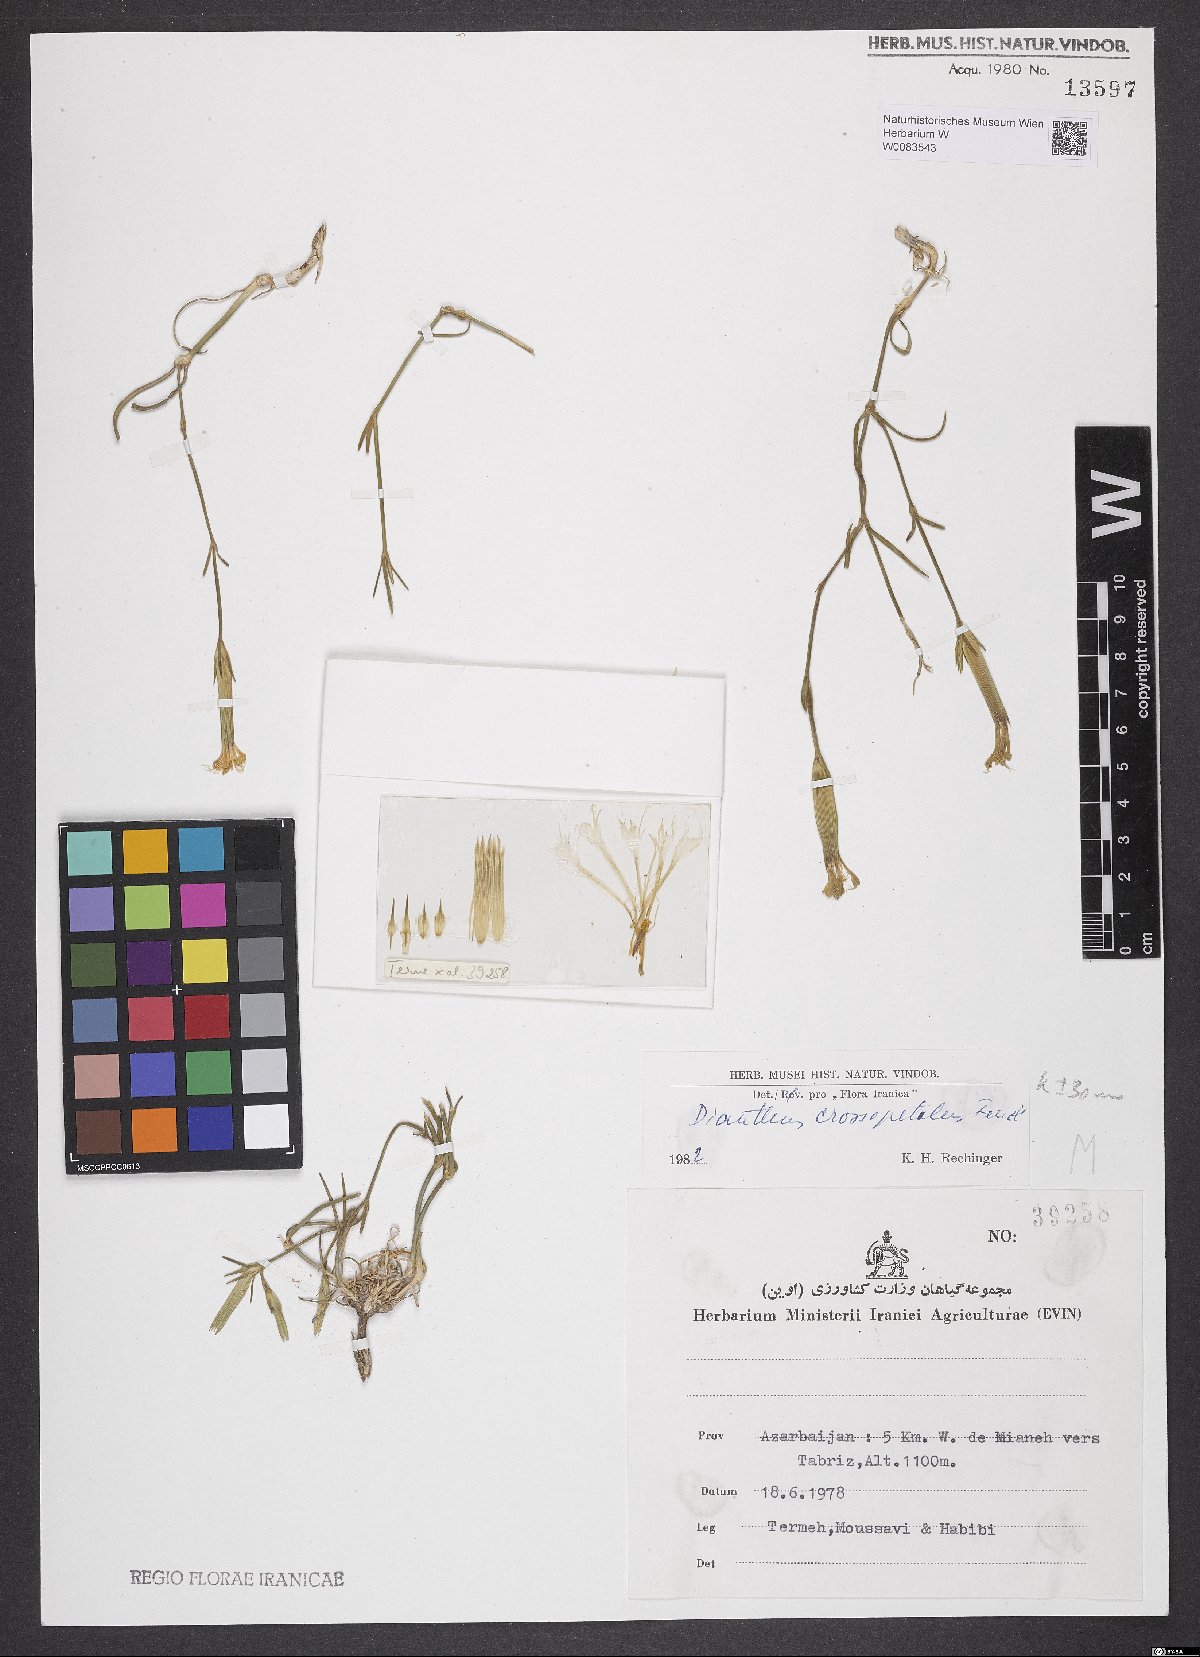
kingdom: Plantae
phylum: Tracheophyta
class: Magnoliopsida
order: Caryophyllales
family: Caryophyllaceae
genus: Dianthus
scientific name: Dianthus crossopetalus
